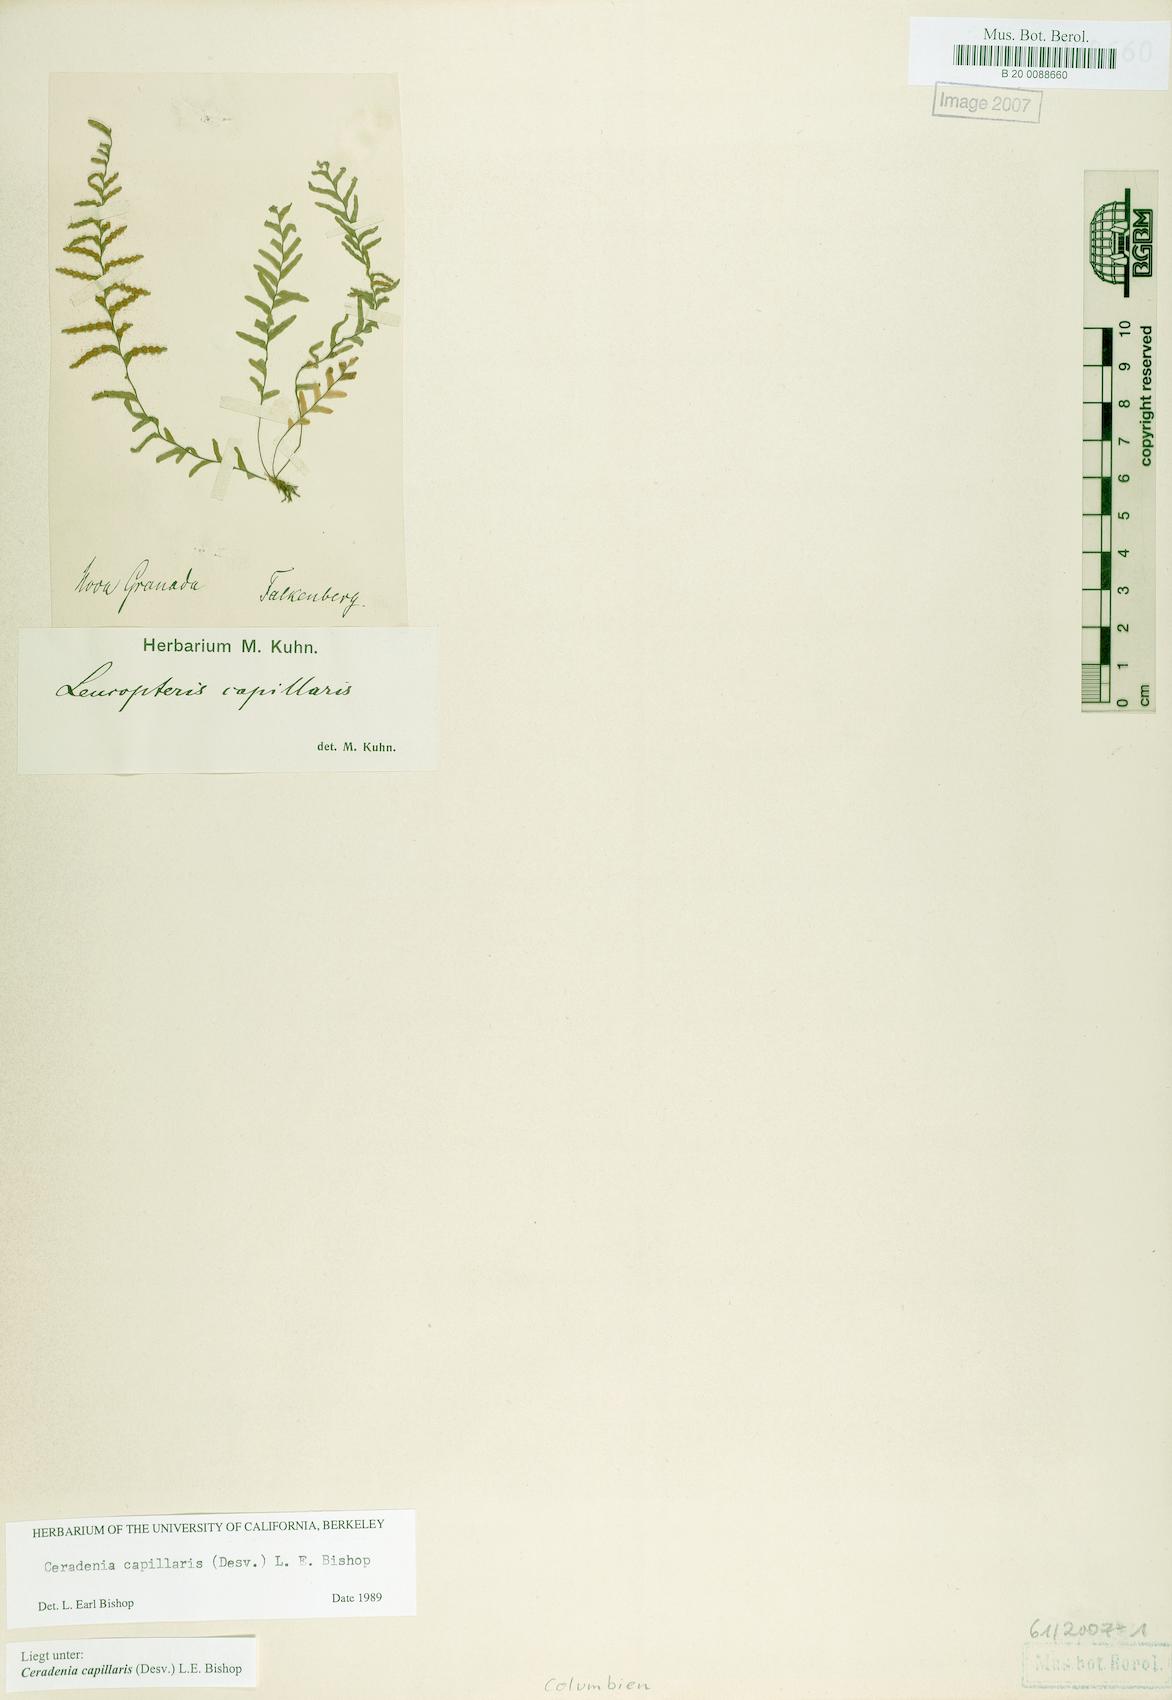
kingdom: Plantae
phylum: Tracheophyta
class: Polypodiopsida
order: Polypodiales
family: Polypodiaceae
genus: Ceradenia
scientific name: Ceradenia capillaris
